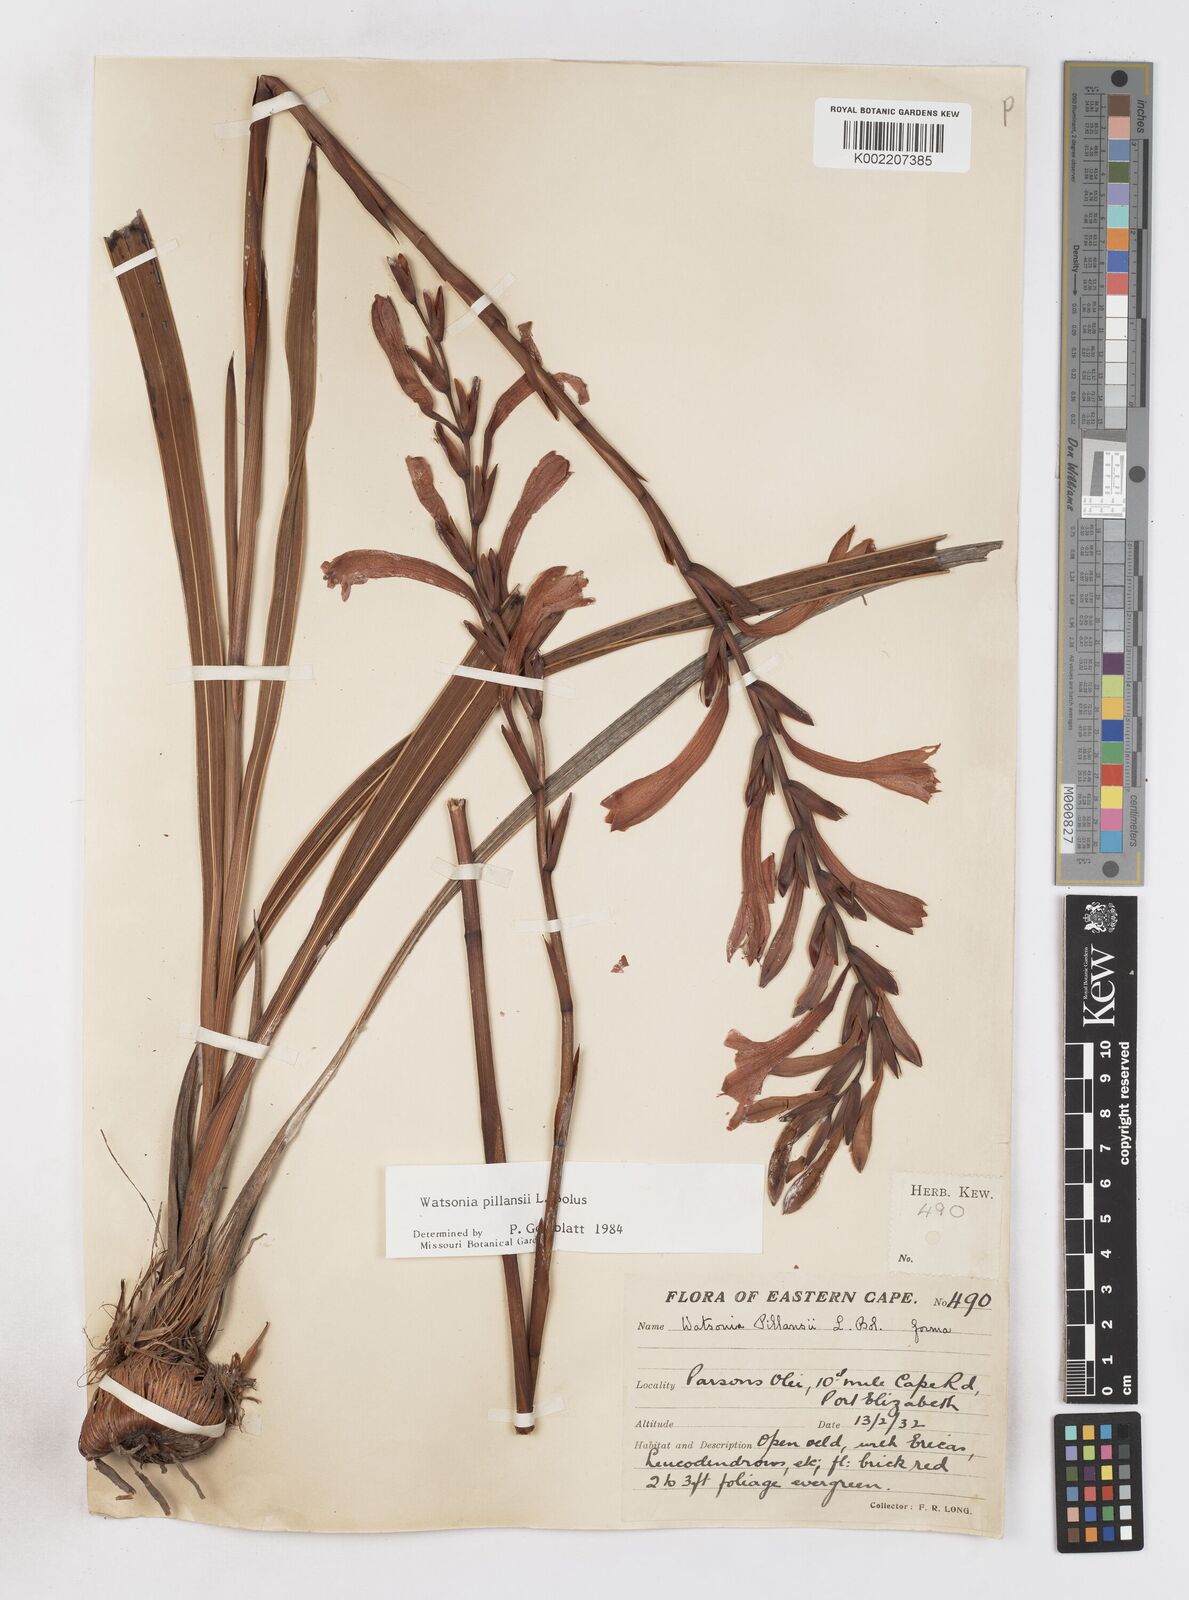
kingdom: Plantae
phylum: Tracheophyta
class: Liliopsida
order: Asparagales
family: Iridaceae
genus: Watsonia
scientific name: Watsonia pillansii
